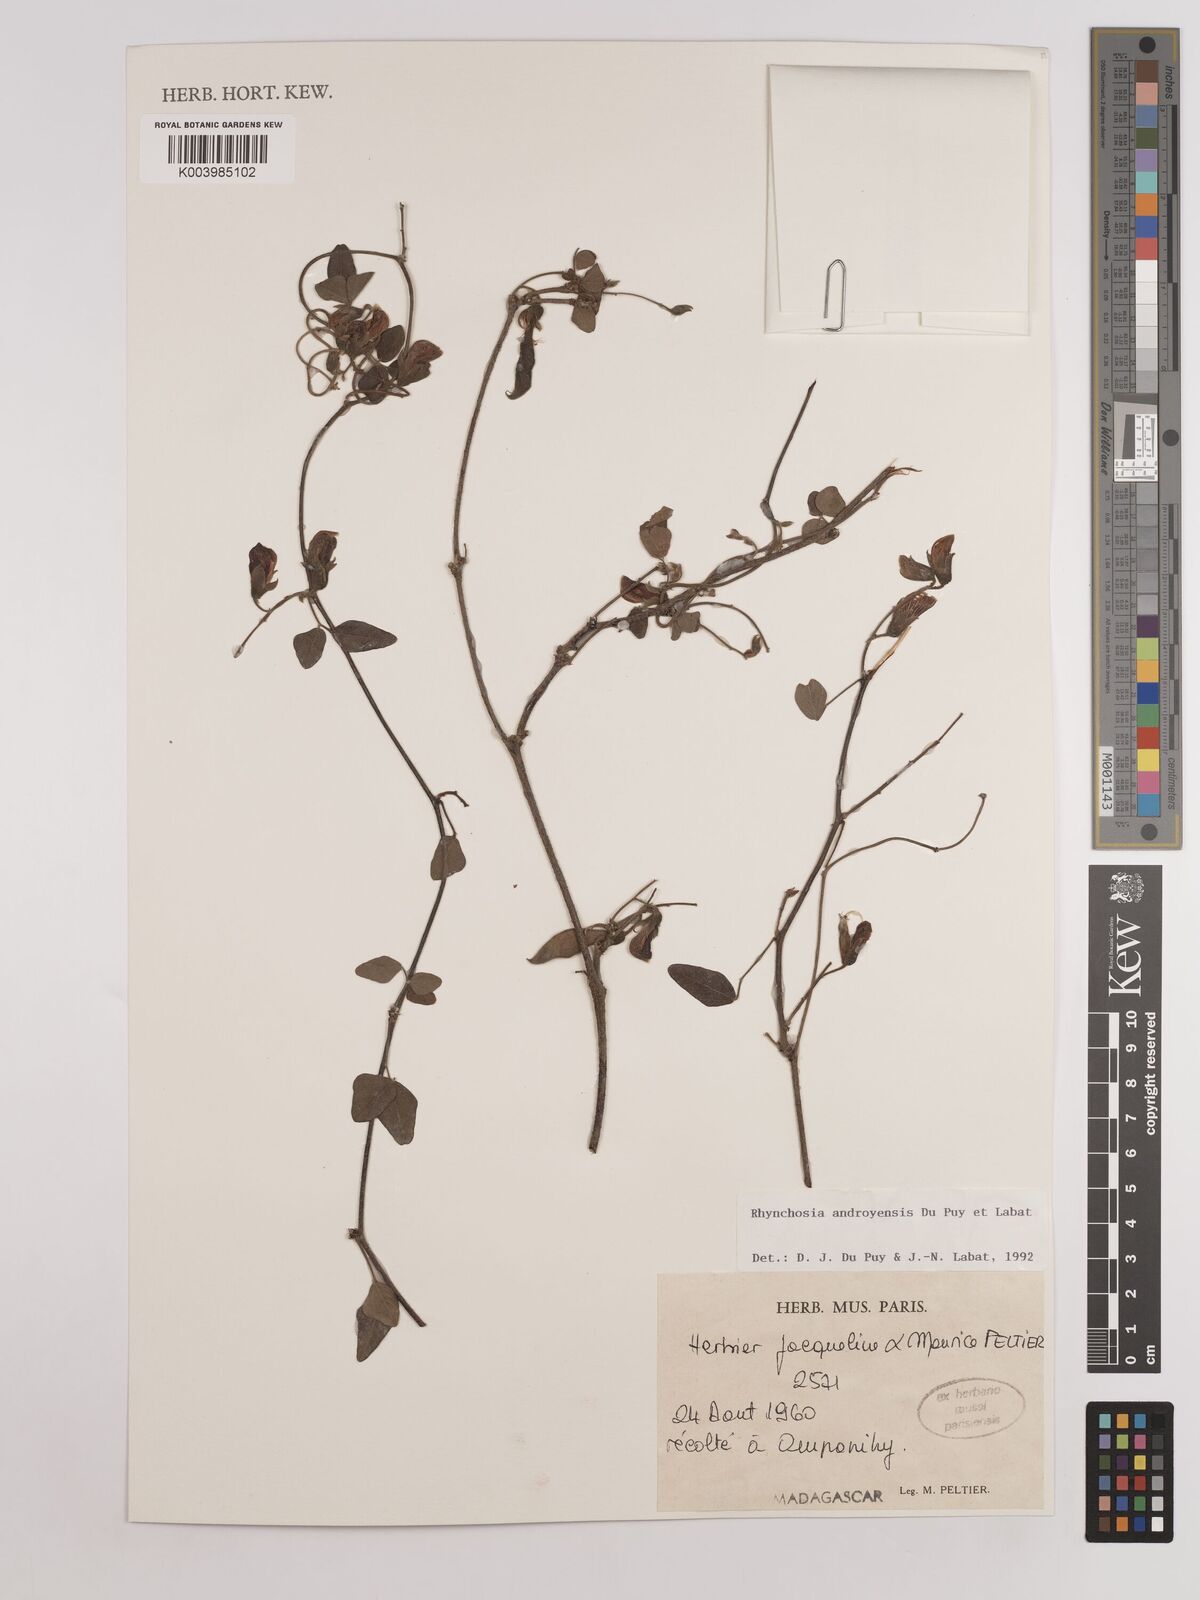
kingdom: Plantae
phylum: Tracheophyta
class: Magnoliopsida
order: Fabales
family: Fabaceae
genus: Rhynchosia
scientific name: Rhynchosia androyensis
